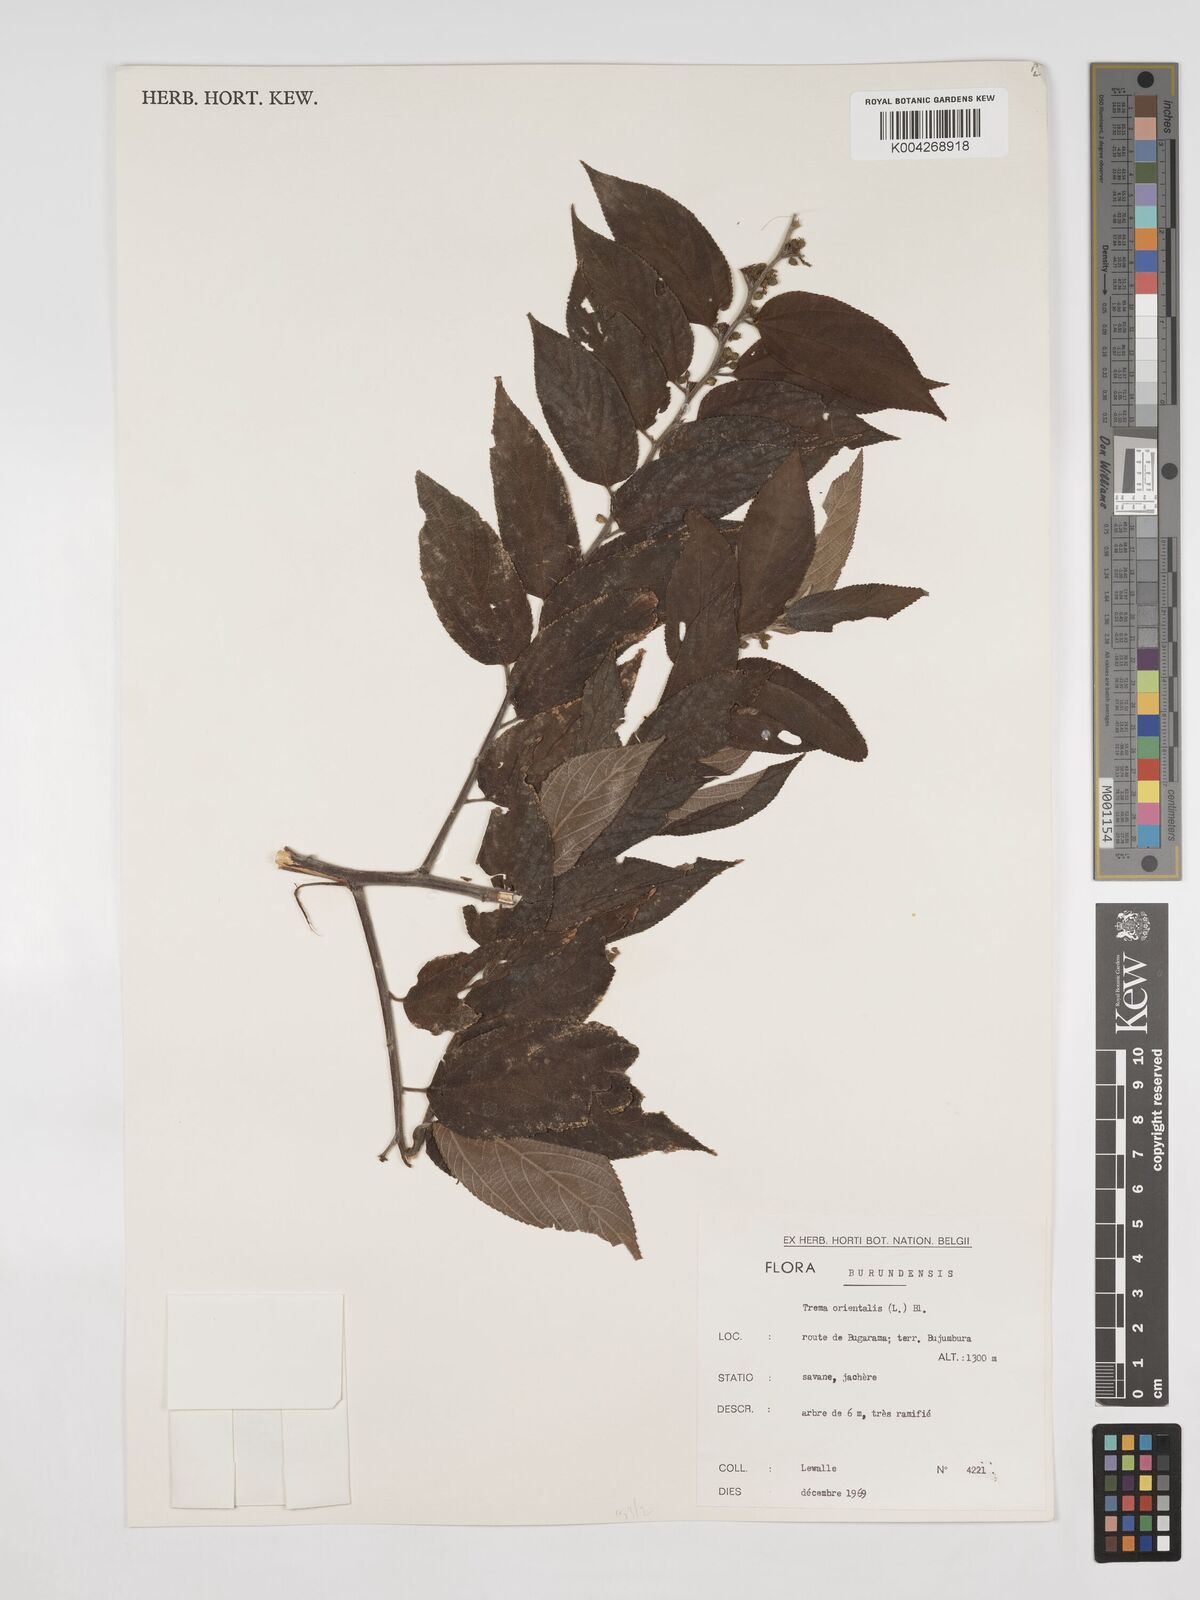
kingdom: Plantae
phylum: Tracheophyta
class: Magnoliopsida
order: Rosales
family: Cannabaceae
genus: Trema
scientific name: Trema orientale
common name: Indian charcoal tree
